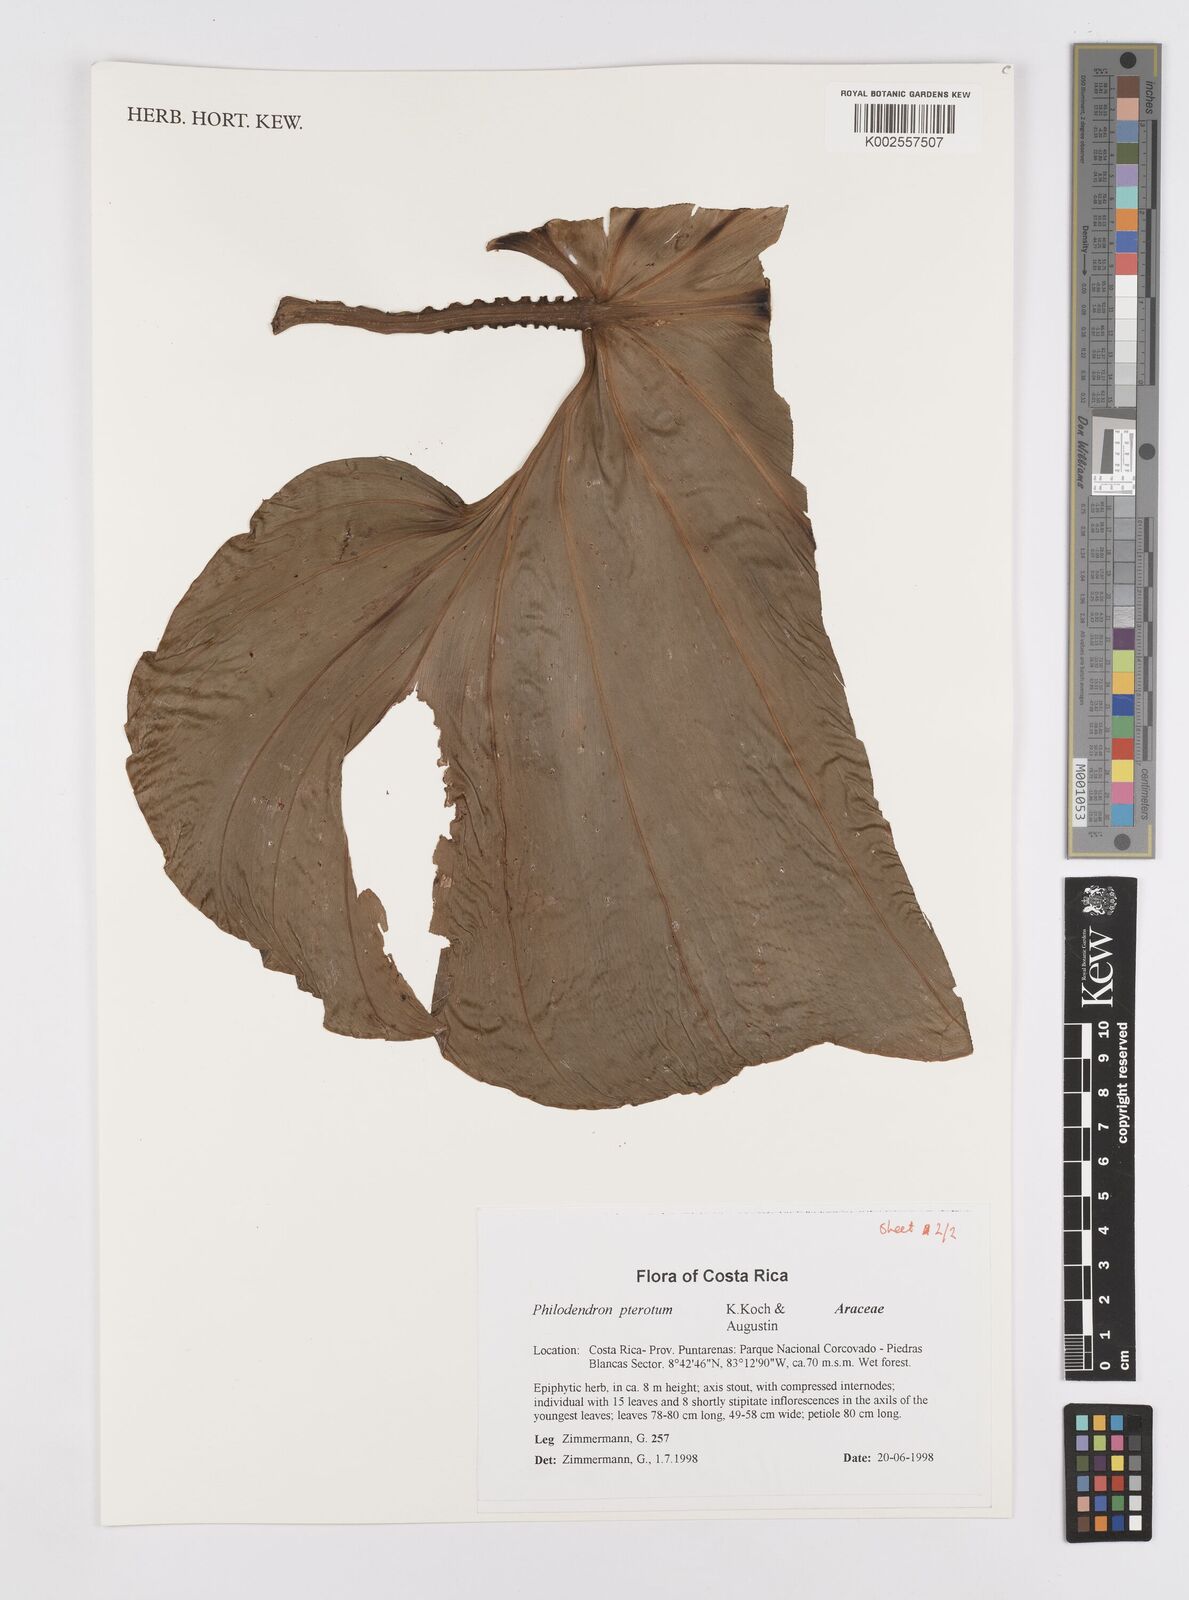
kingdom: Plantae
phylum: Tracheophyta
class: Liliopsida
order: Alismatales
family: Araceae
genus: Philodendron
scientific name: Philodendron pterotum
